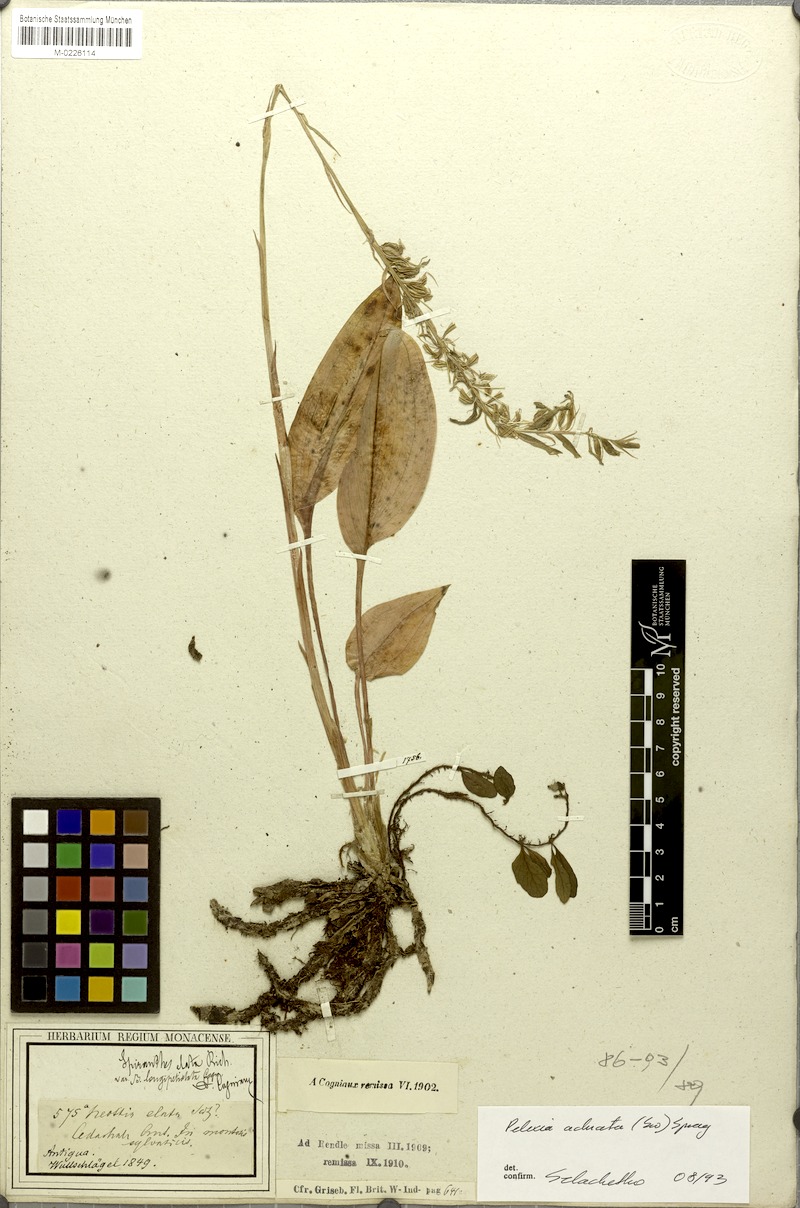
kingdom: Plantae
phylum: Tracheophyta
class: Liliopsida
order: Asparagales
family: Orchidaceae
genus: Cyclopogon
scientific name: Cyclopogon elatus
